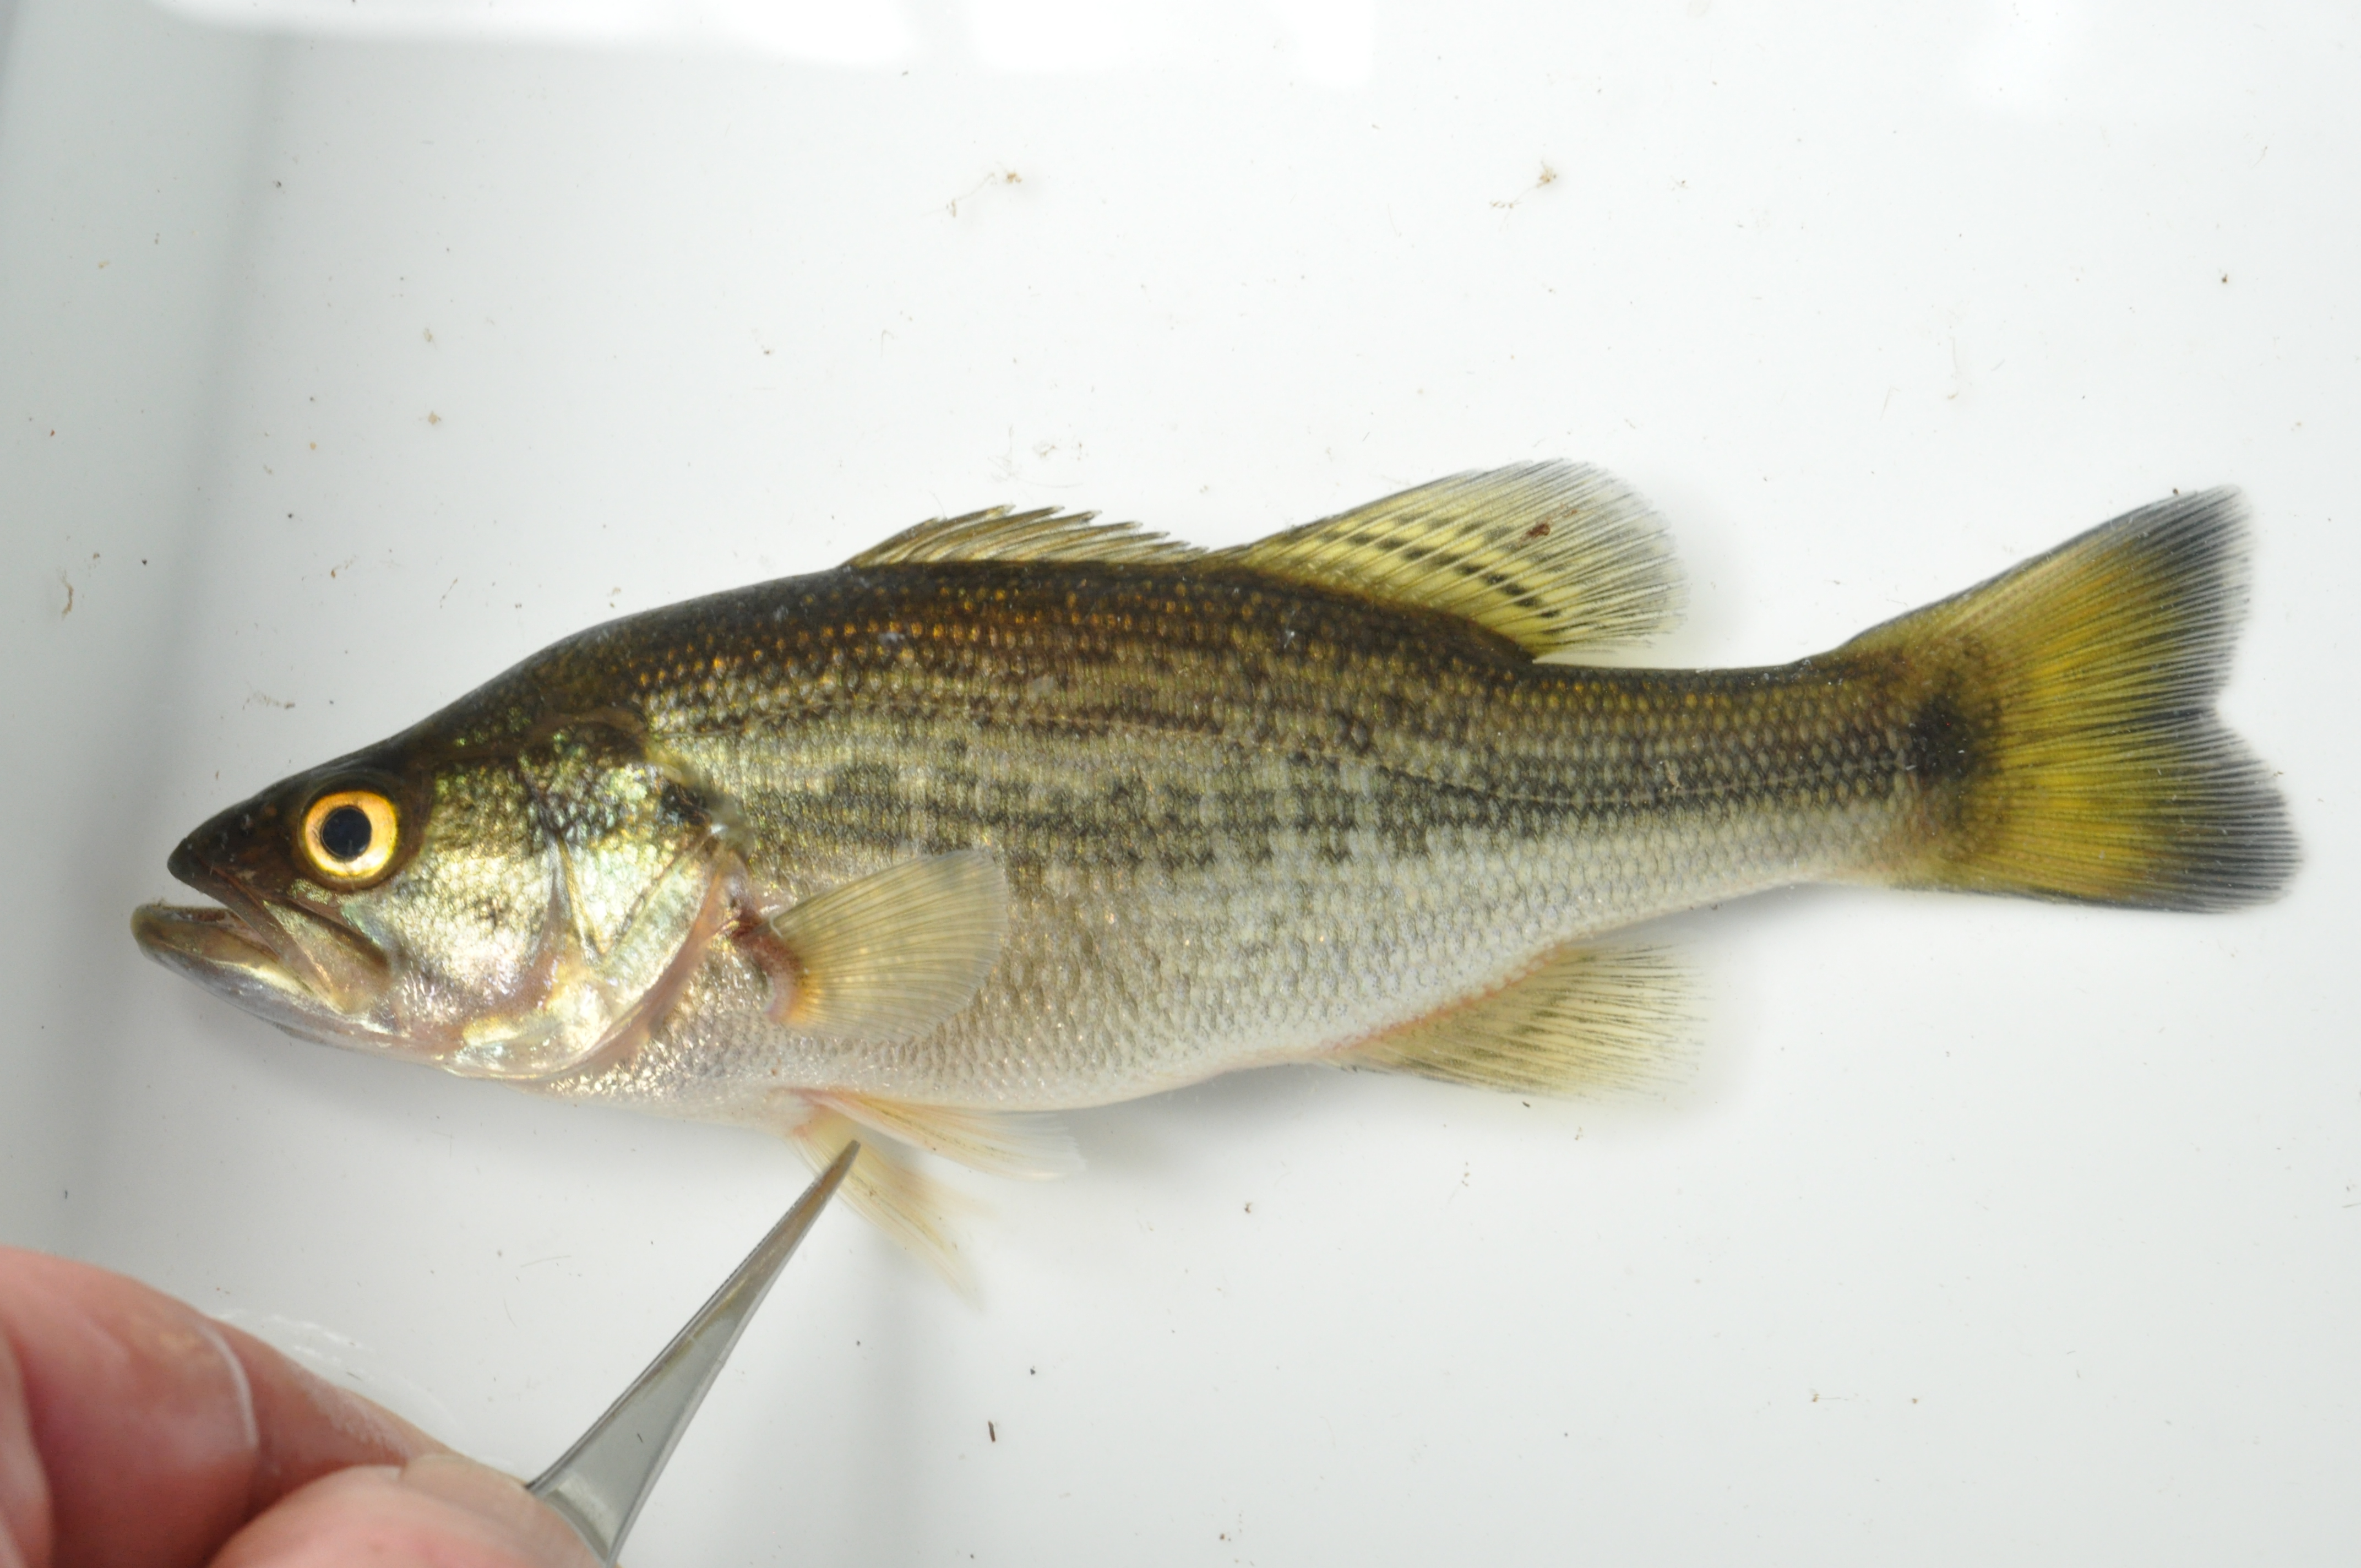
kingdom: Animalia
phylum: Chordata
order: Perciformes
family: Centrarchidae
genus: Micropterus
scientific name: Micropterus salmoides
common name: Largemouth bass
